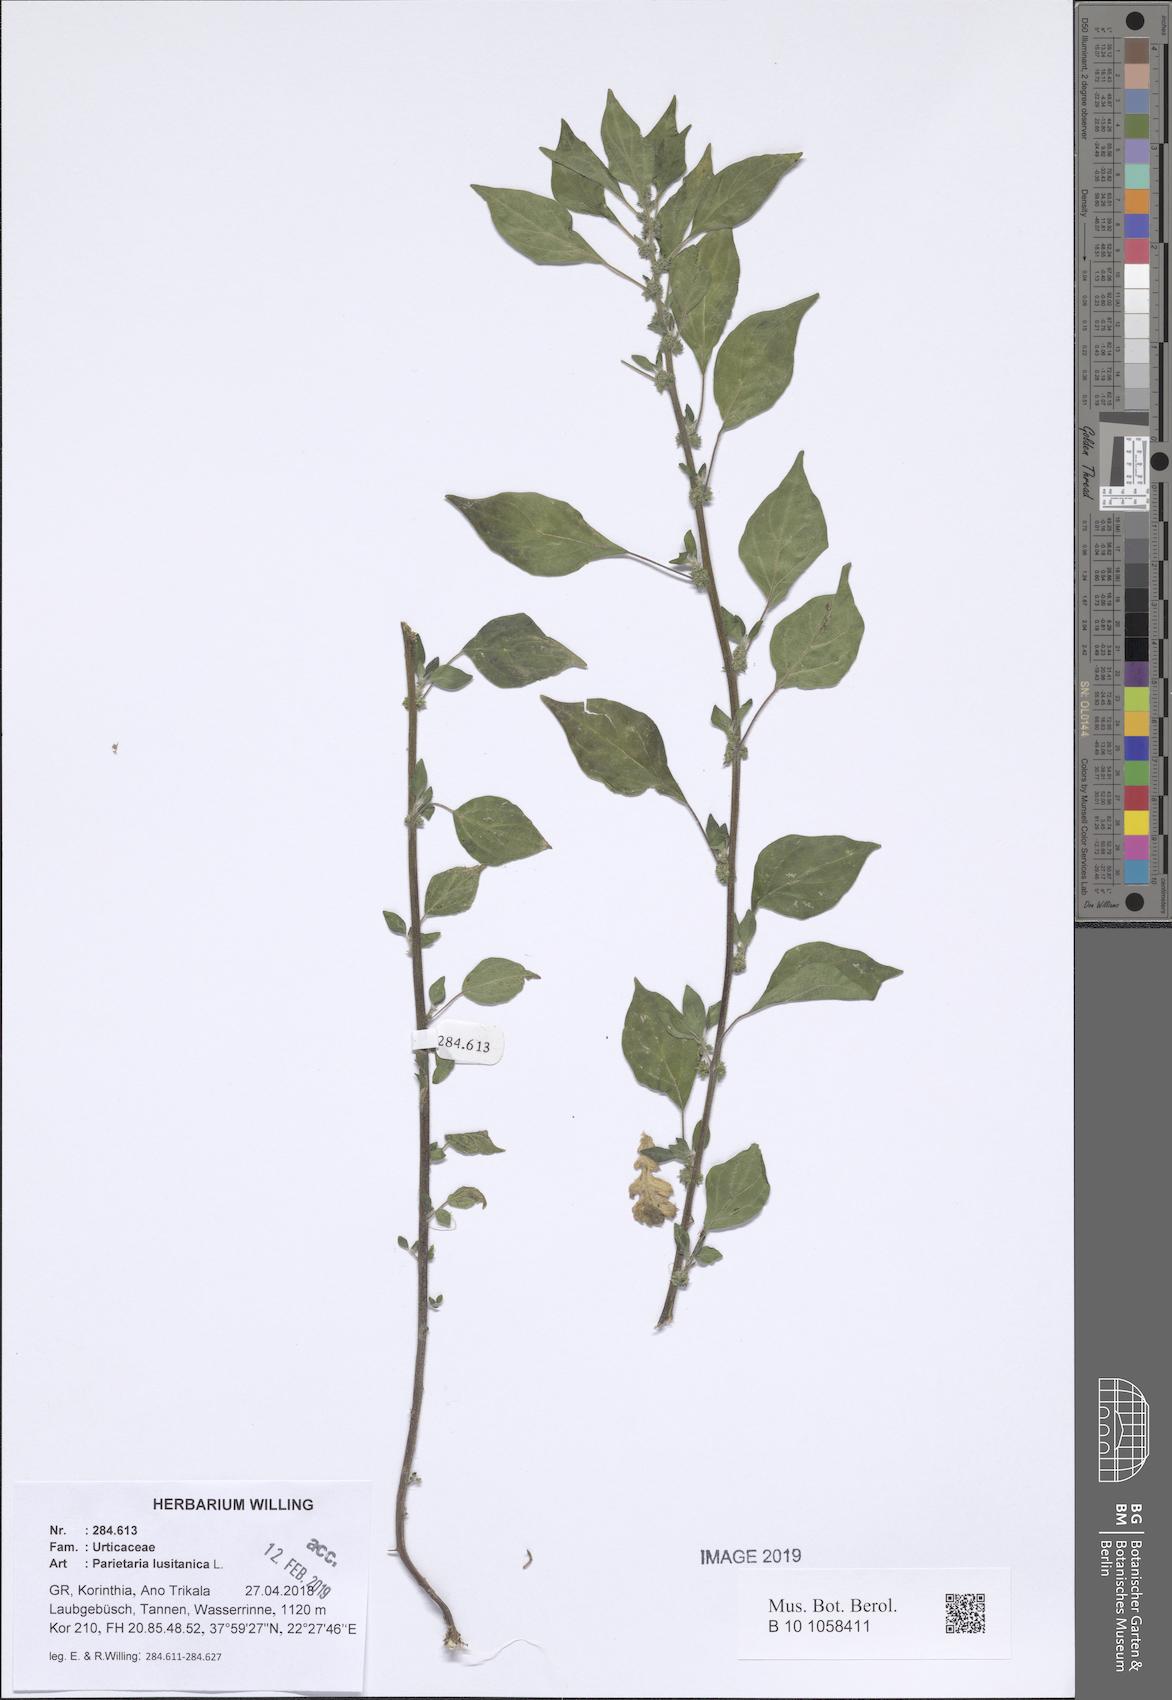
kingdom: Plantae
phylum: Tracheophyta
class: Magnoliopsida
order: Rosales
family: Urticaceae
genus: Parietaria
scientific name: Parietaria lusitanica
